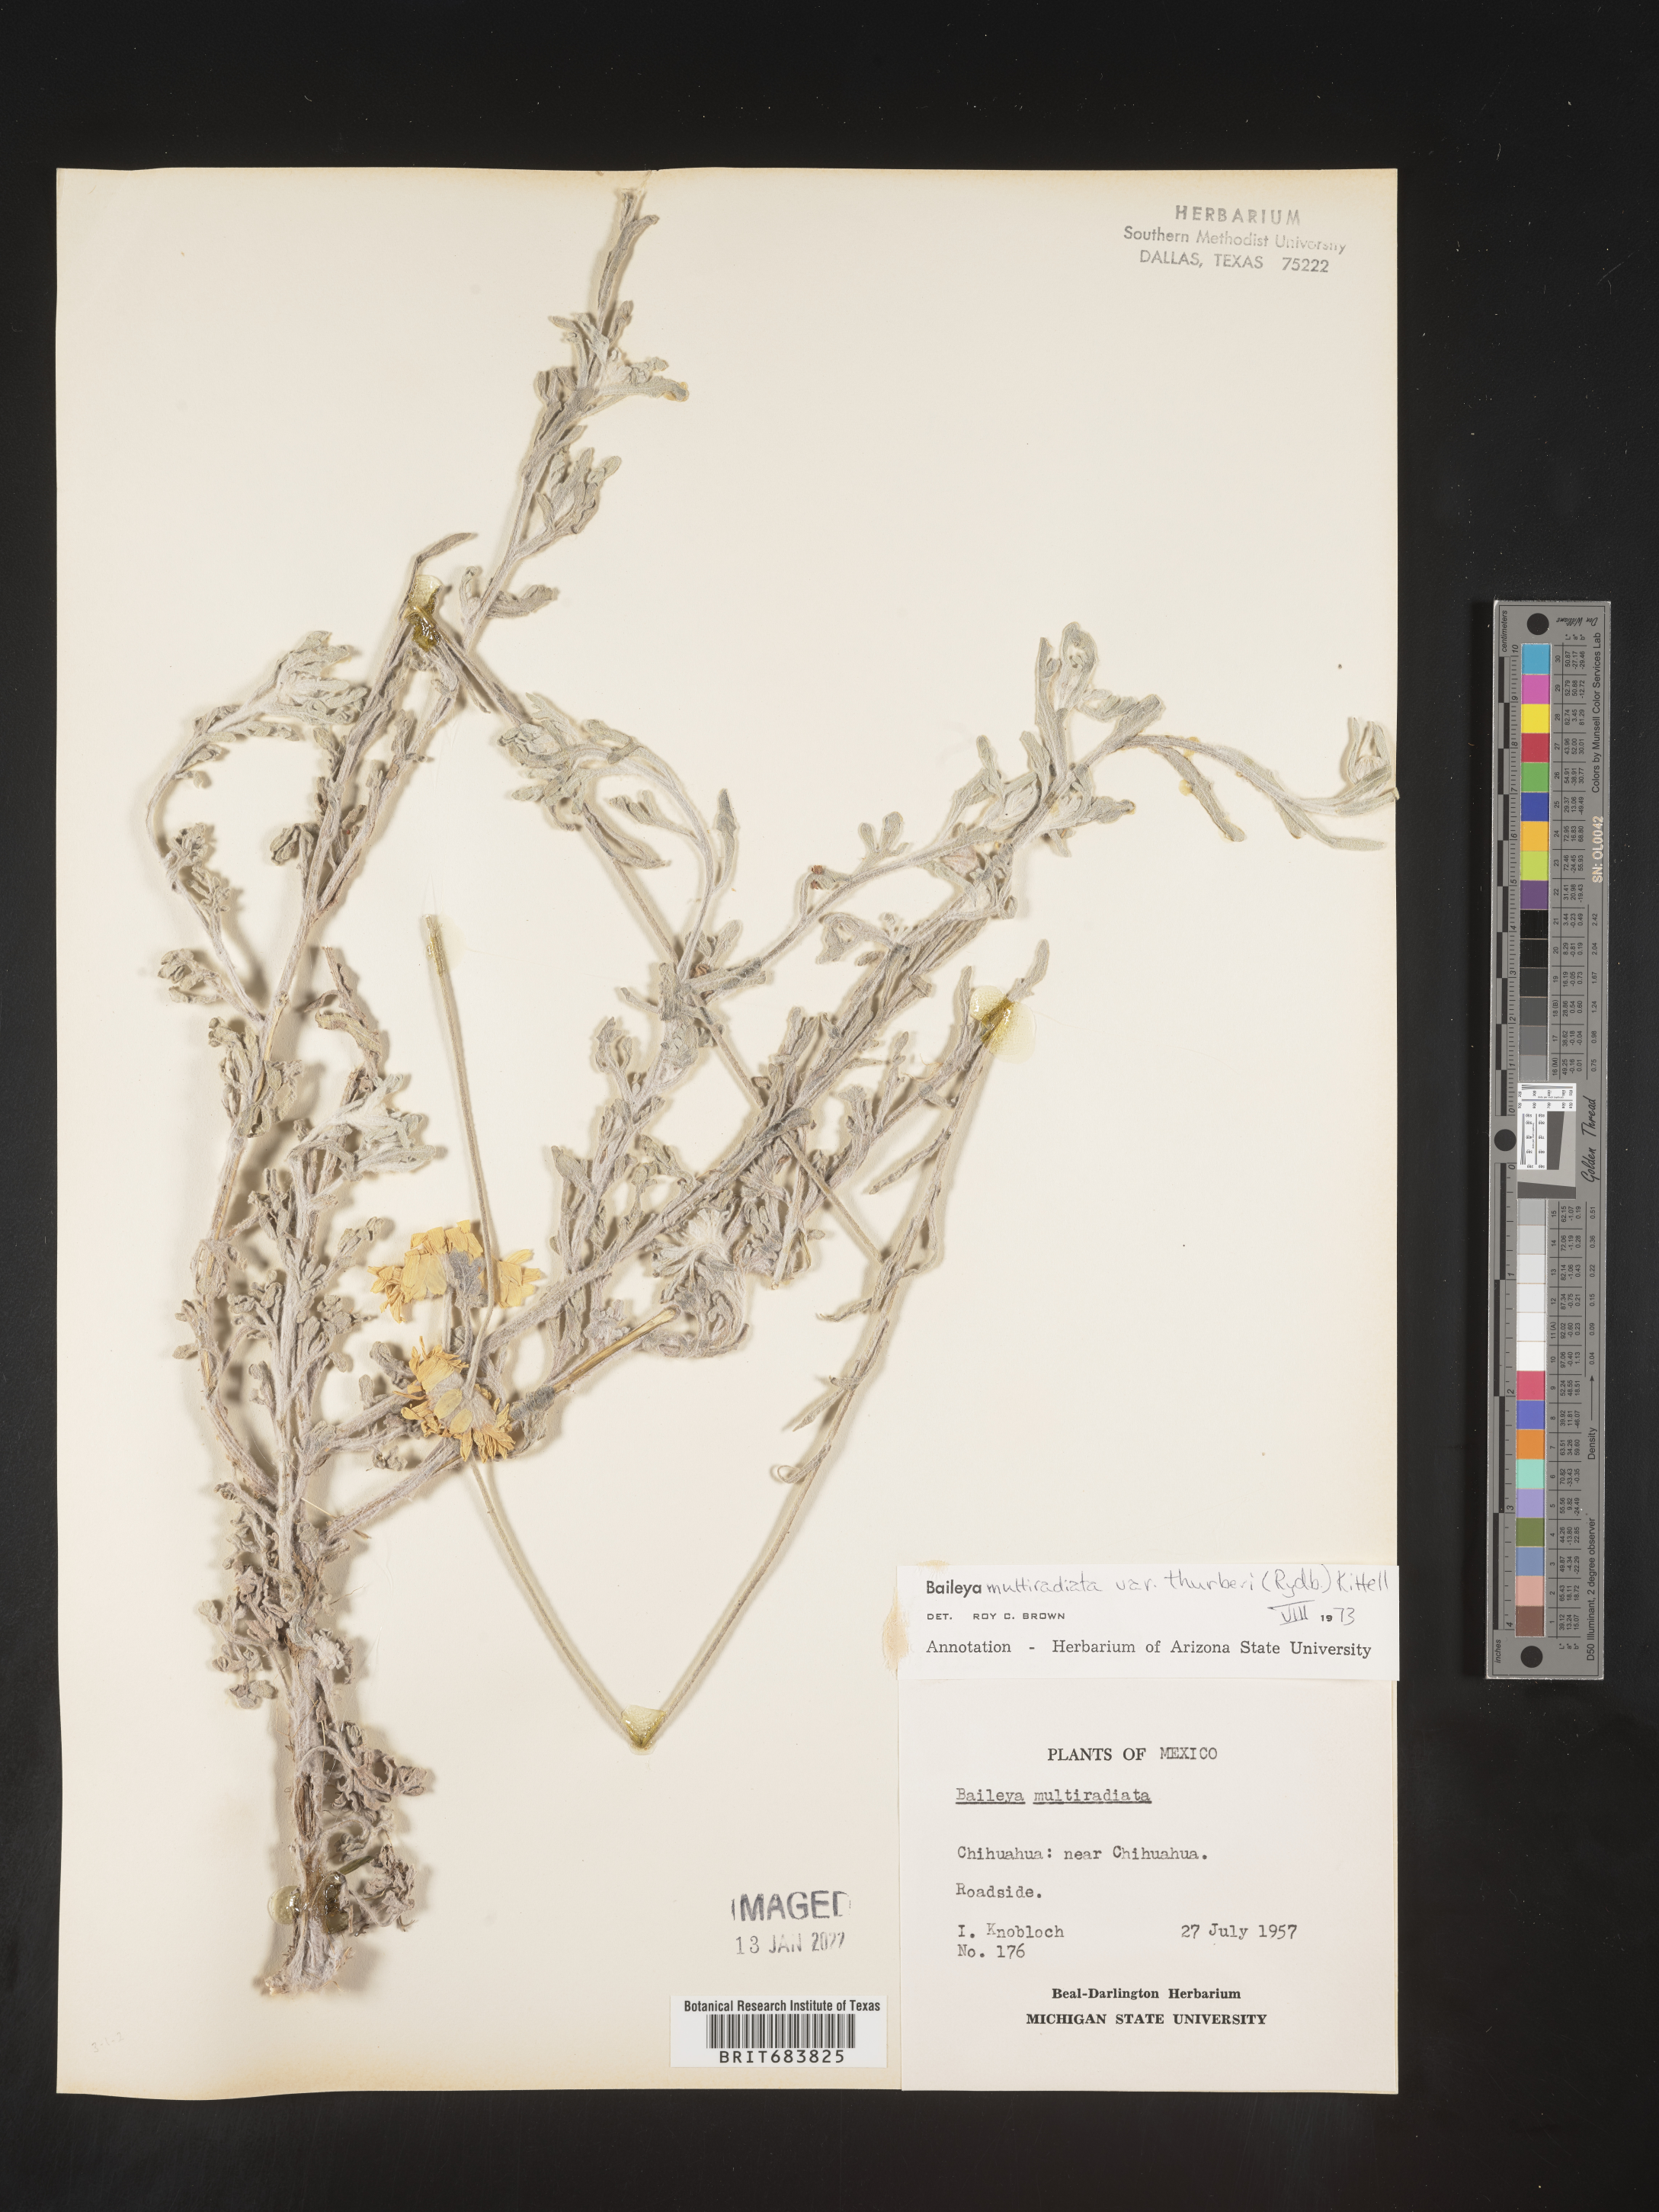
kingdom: Plantae
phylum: Tracheophyta
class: Magnoliopsida
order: Asterales
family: Asteraceae
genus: Baileya
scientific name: Baileya
